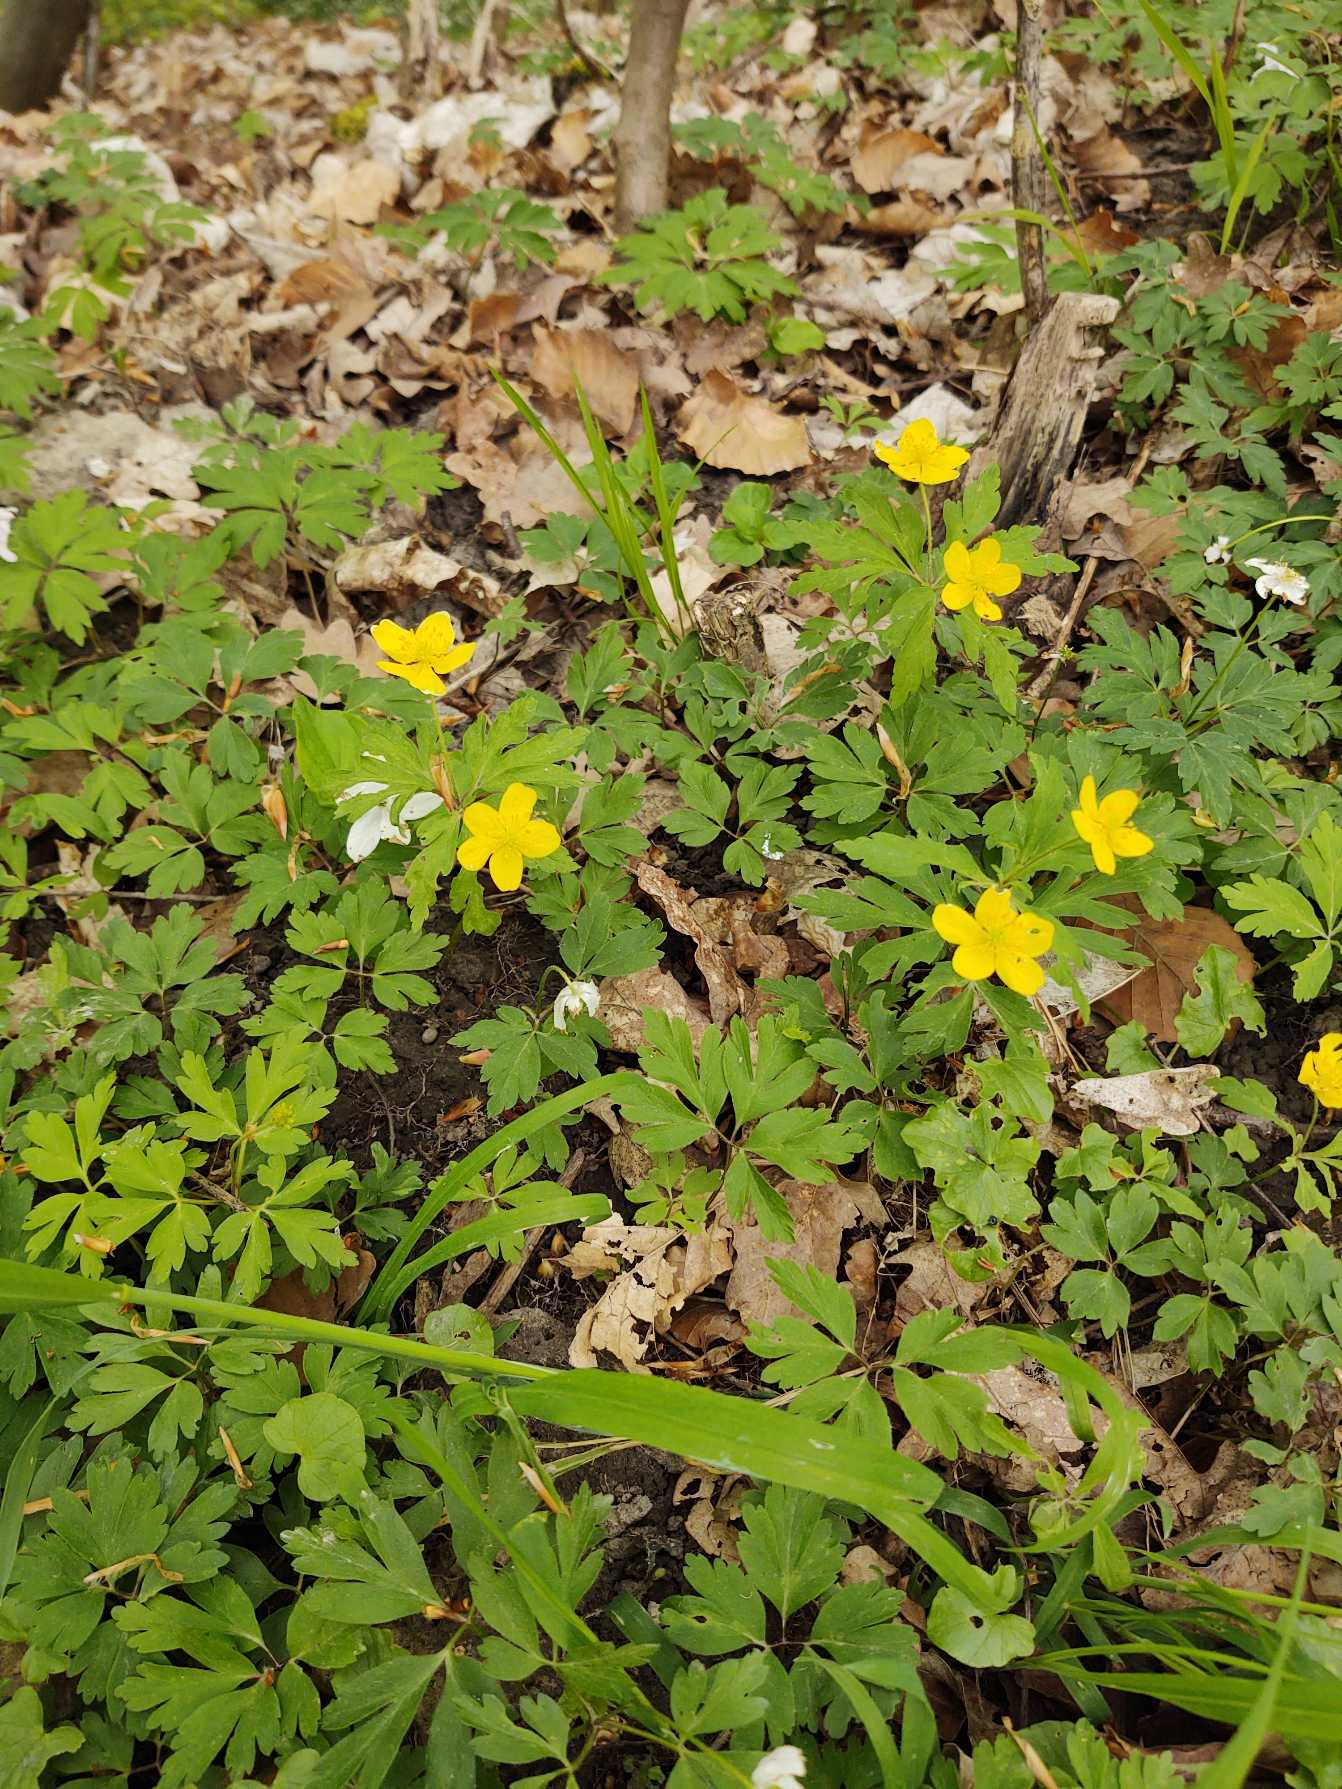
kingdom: Plantae
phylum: Tracheophyta
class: Magnoliopsida
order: Ranunculales
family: Ranunculaceae
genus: Anemone
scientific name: Anemone ranunculoides
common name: Gul anemone
